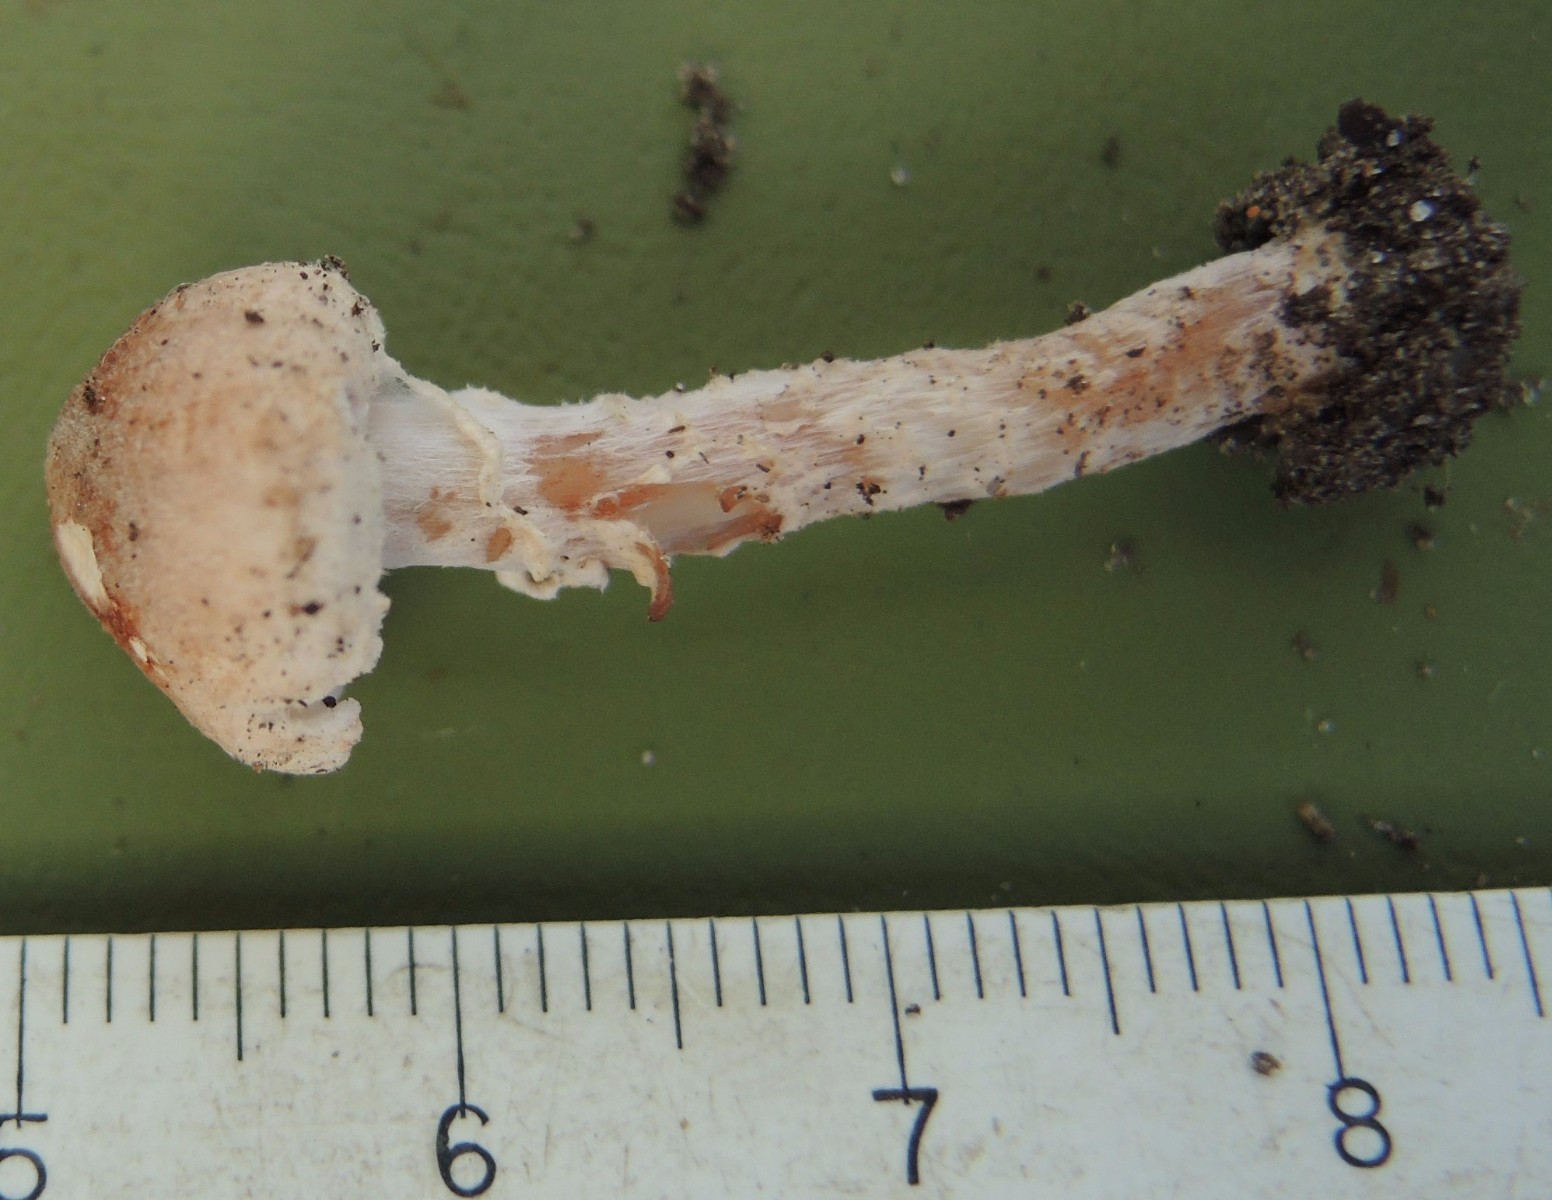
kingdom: Fungi
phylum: Basidiomycota
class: Agaricomycetes
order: Agaricales
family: Agaricaceae
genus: Lepiota
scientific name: Lepiota subincarnata
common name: kødfarvet parasolhat
